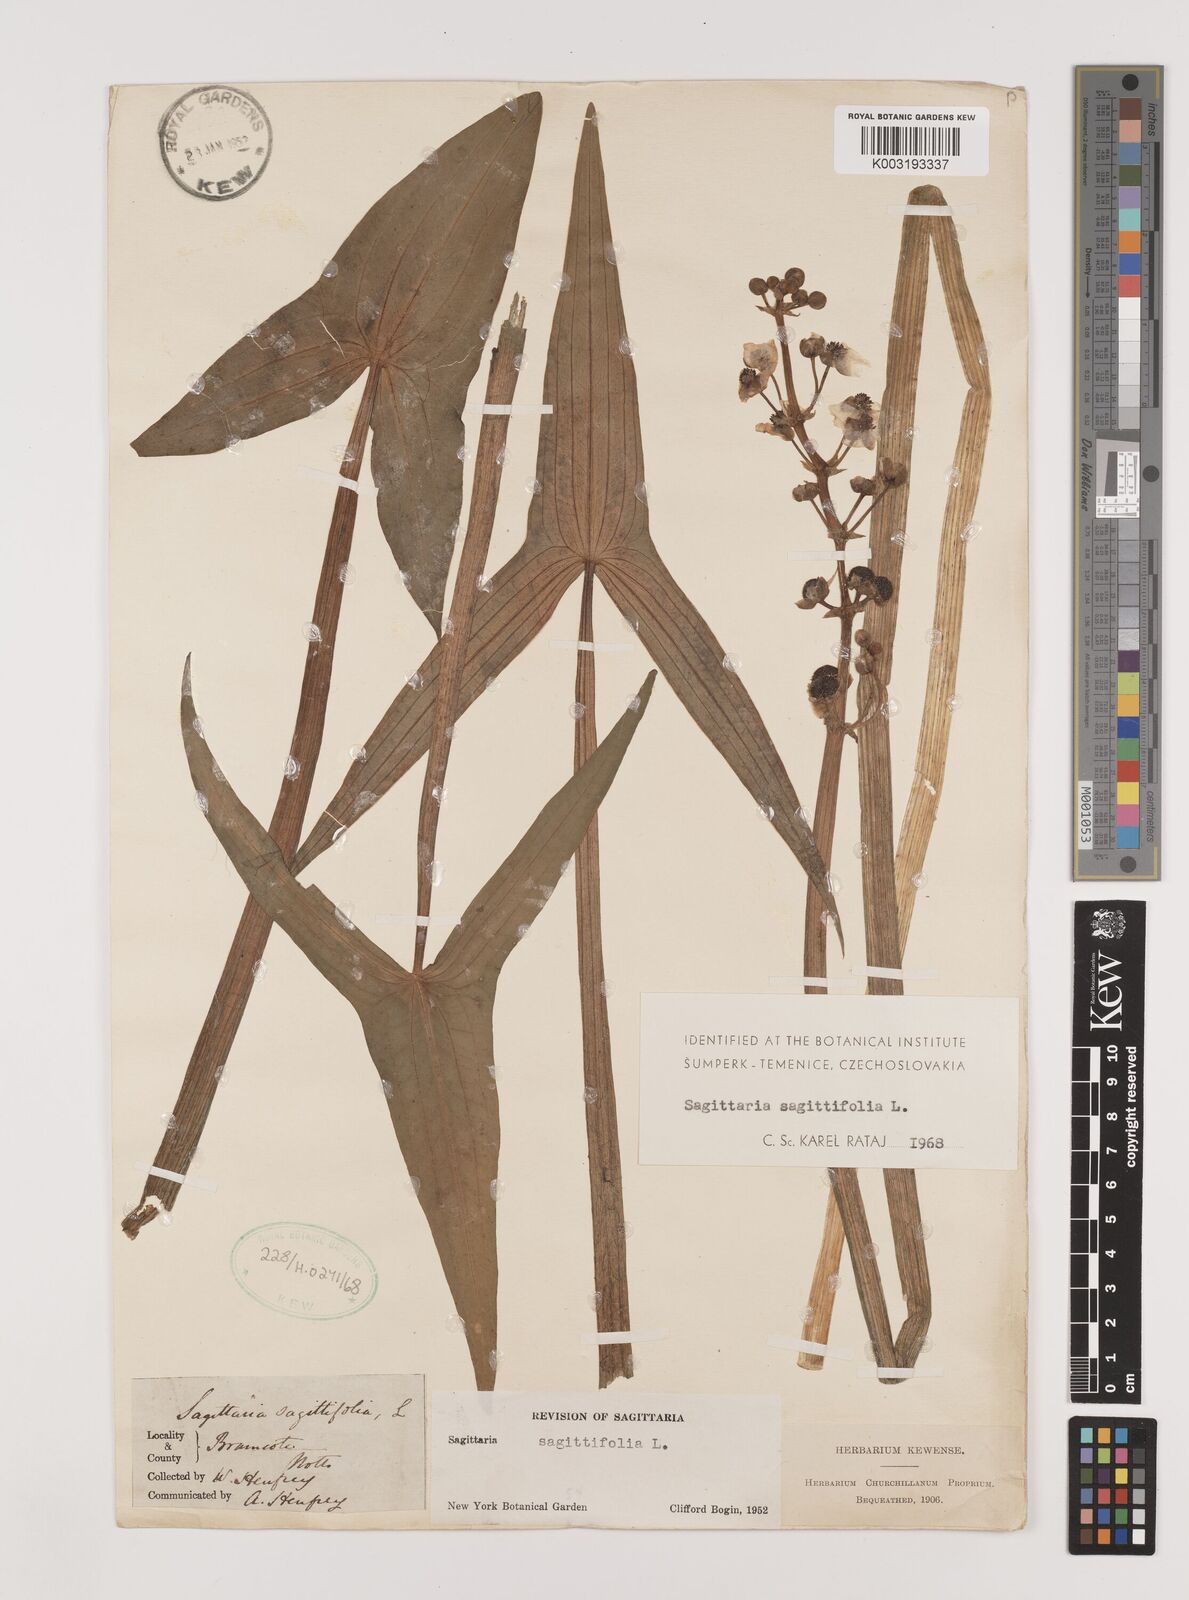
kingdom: Plantae
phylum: Tracheophyta
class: Liliopsida
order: Alismatales
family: Alismataceae
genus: Sagittaria
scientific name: Sagittaria sagittifolia
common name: Arrowhead
